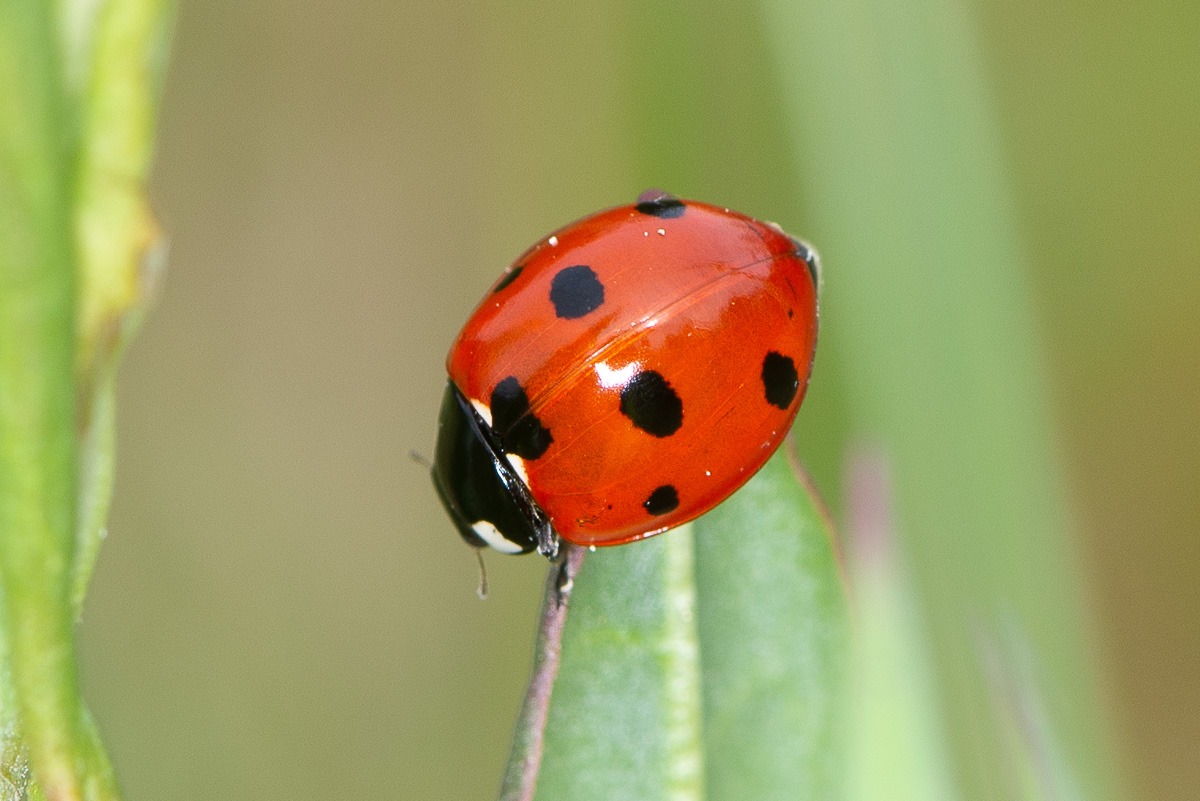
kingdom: Animalia
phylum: Arthropoda
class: Insecta
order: Coleoptera
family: Coccinellidae
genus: Coccinella
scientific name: Coccinella septempunctata
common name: Syvplettet mariehøne
